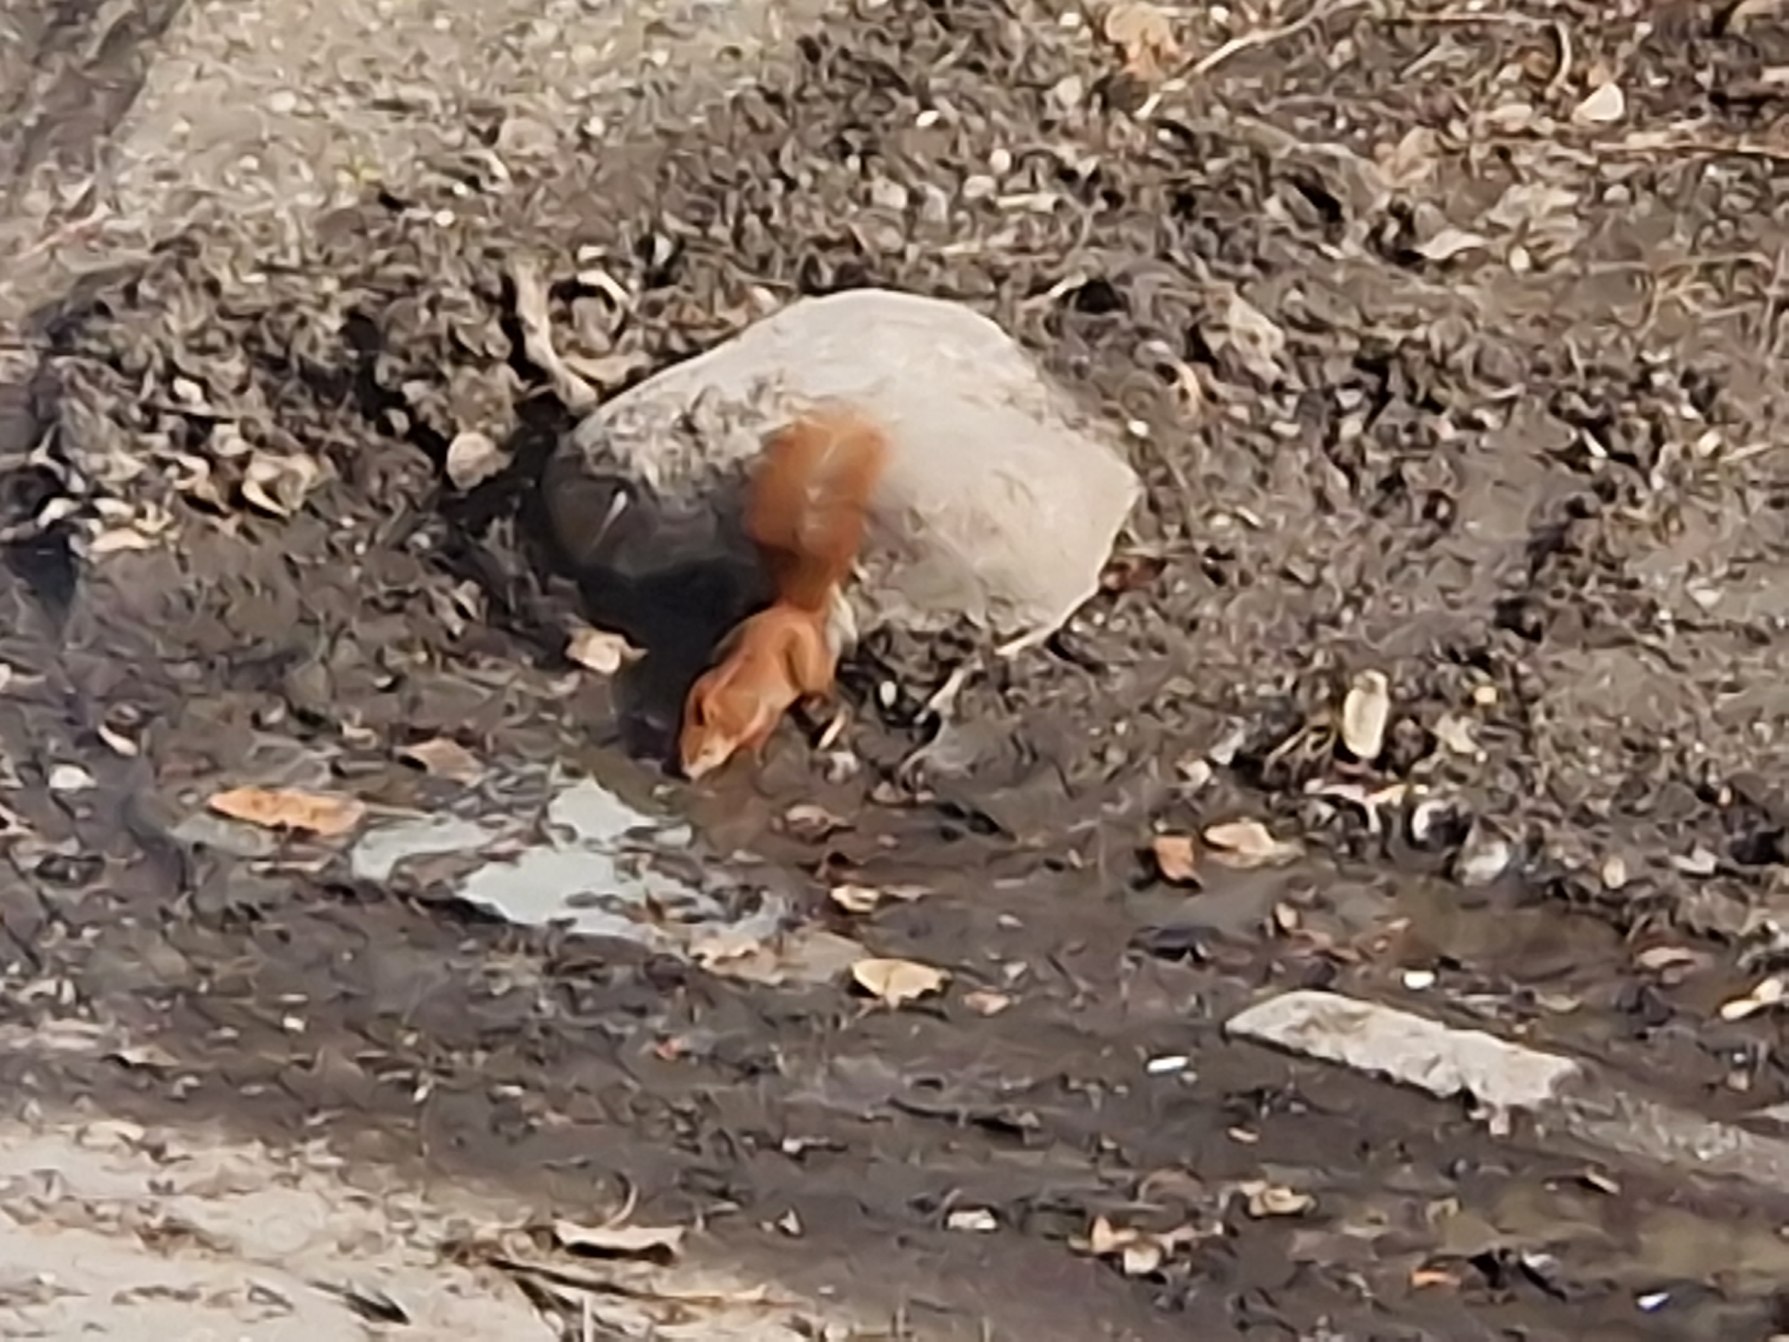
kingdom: Animalia
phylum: Chordata
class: Mammalia
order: Rodentia
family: Sciuridae
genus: Sciurus
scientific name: Sciurus vulgaris
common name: Egern
